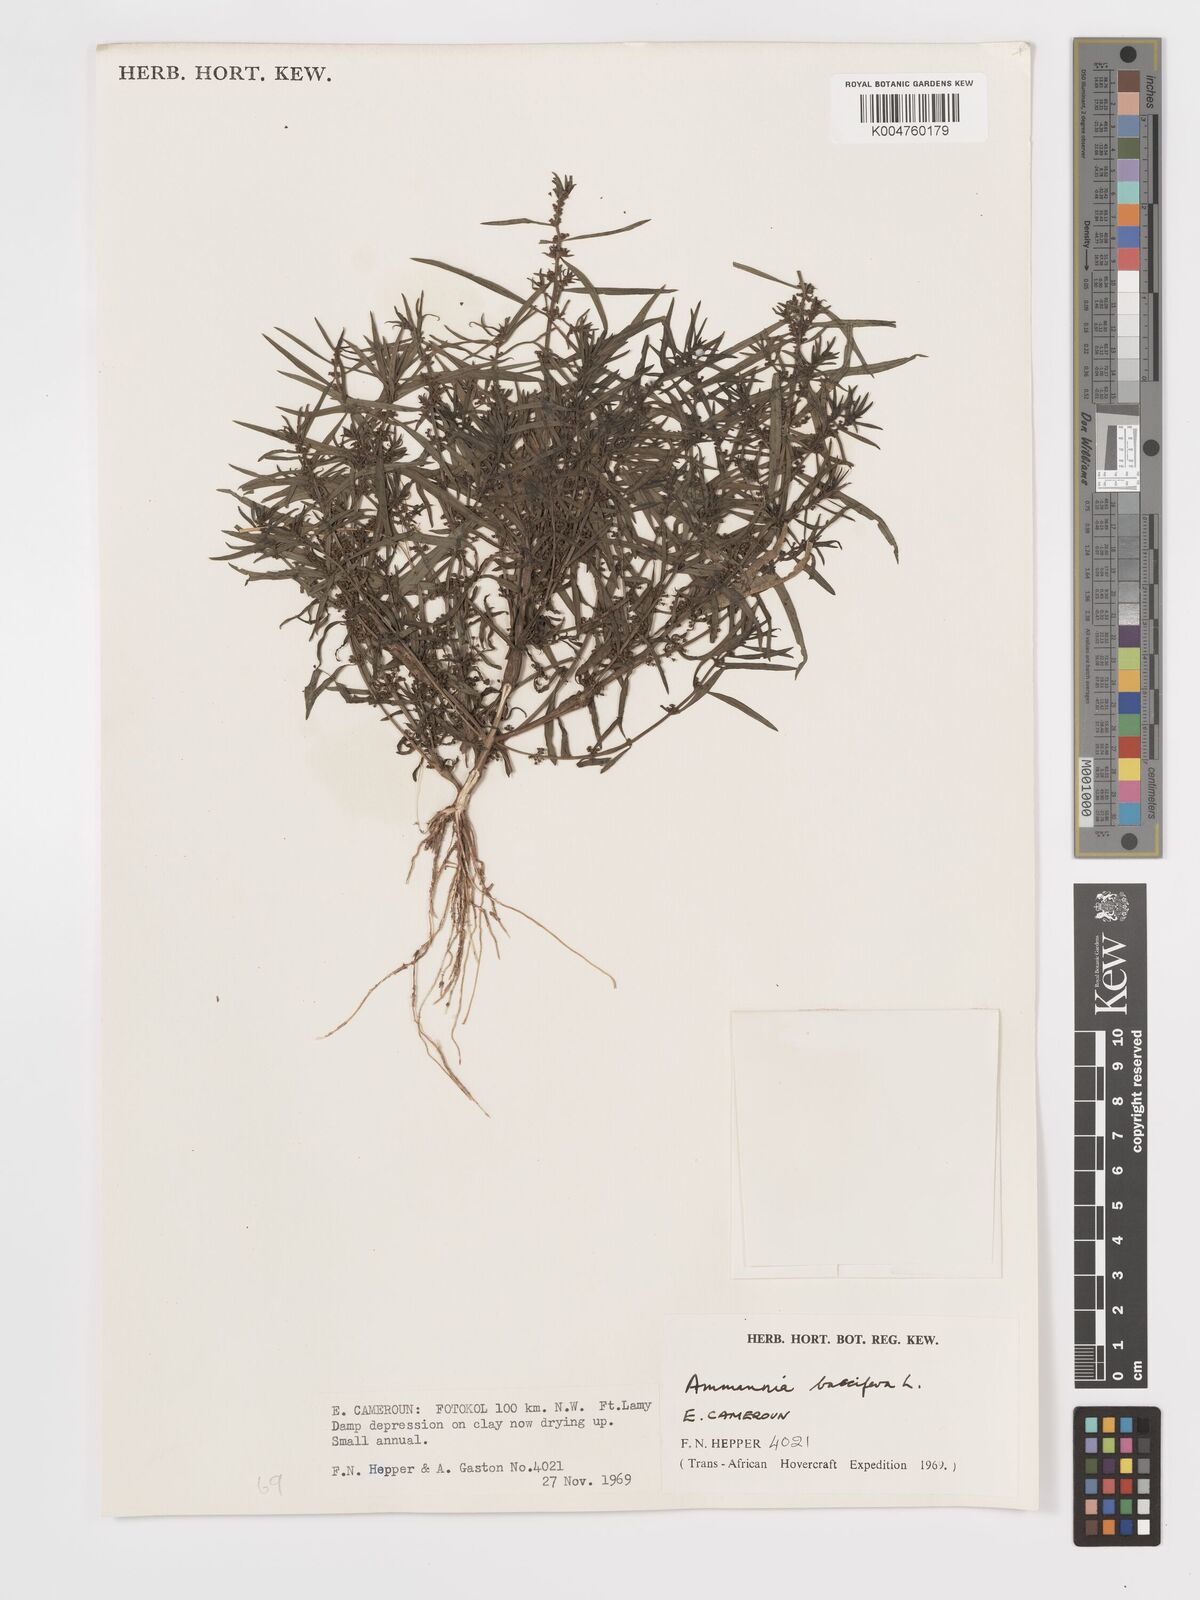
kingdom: Plantae
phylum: Tracheophyta
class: Magnoliopsida
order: Myrtales
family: Lythraceae
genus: Ammannia
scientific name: Ammannia
